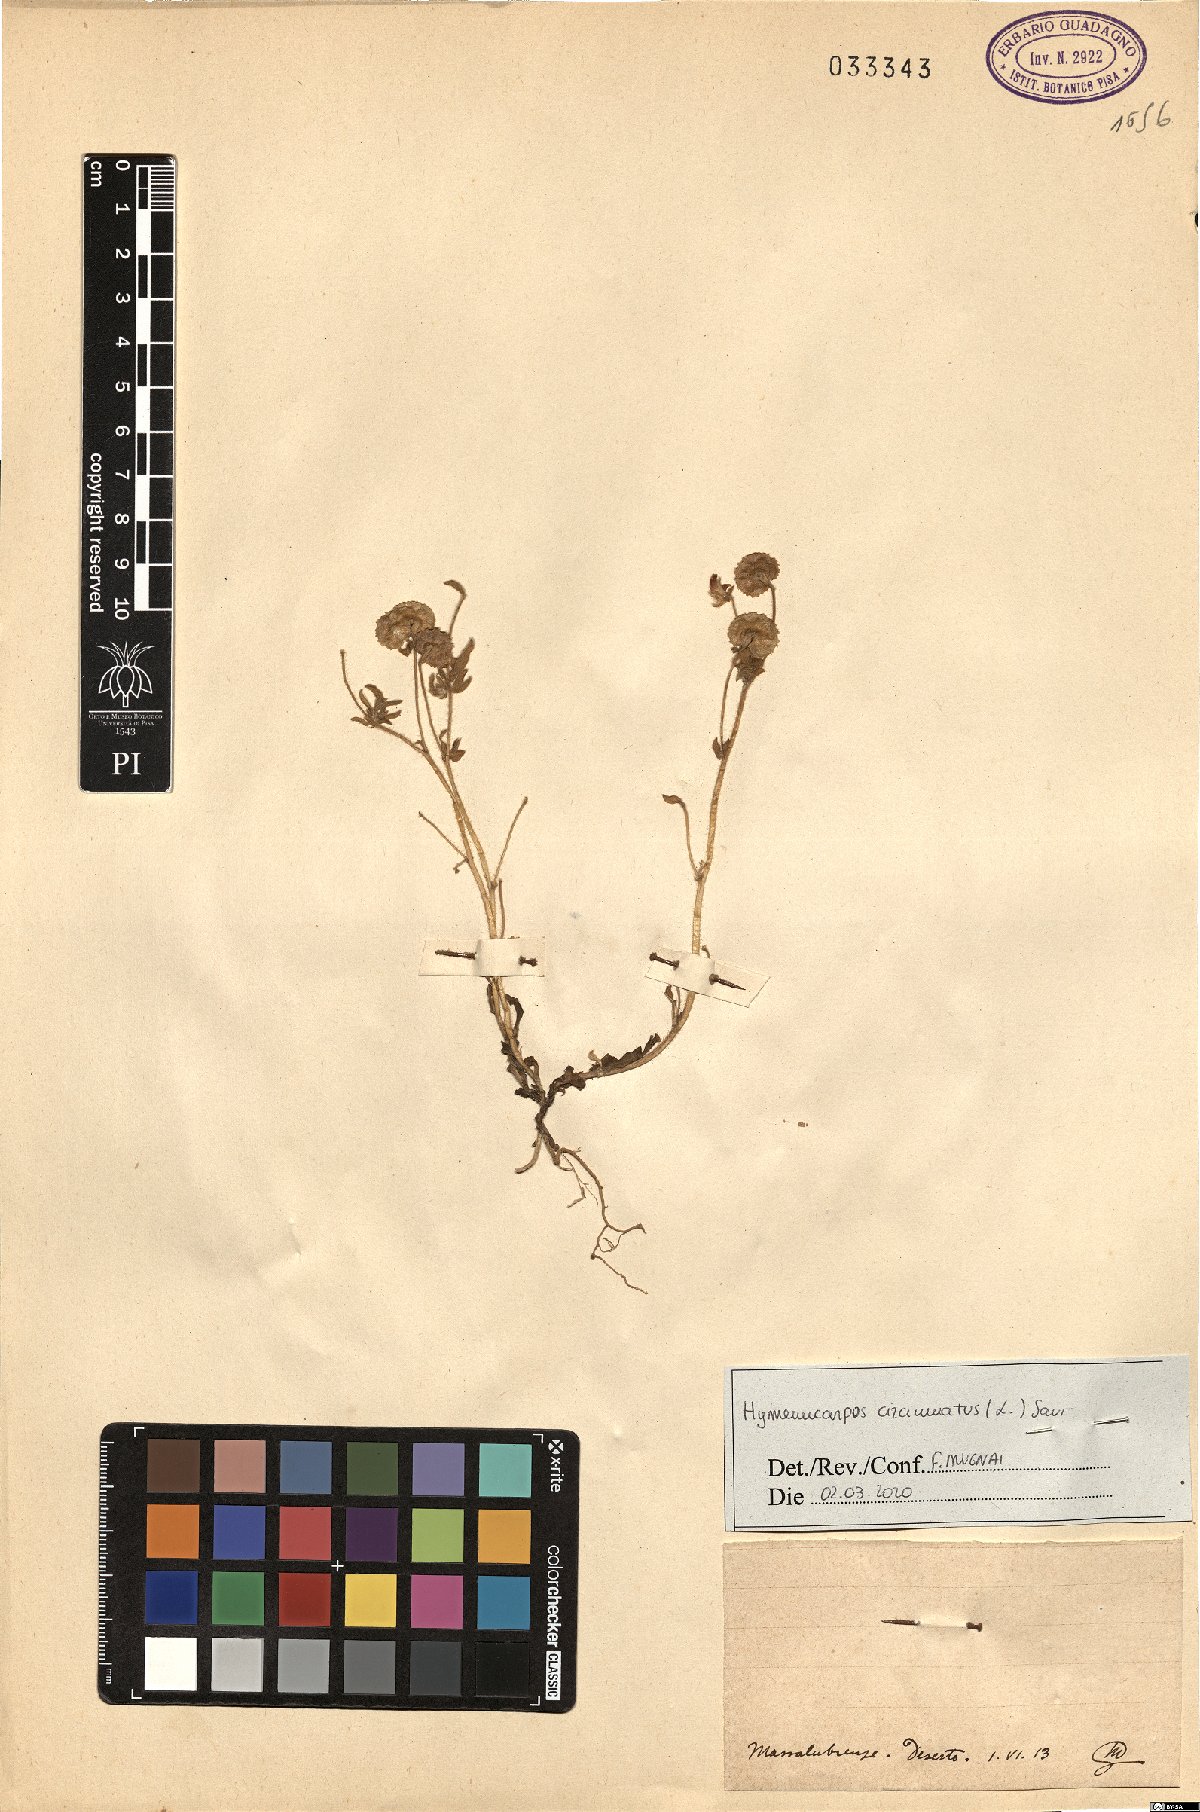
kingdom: Plantae
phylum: Tracheophyta
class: Magnoliopsida
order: Fabales
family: Fabaceae
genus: Anthyllis
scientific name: Anthyllis Hymenocarpos spec
